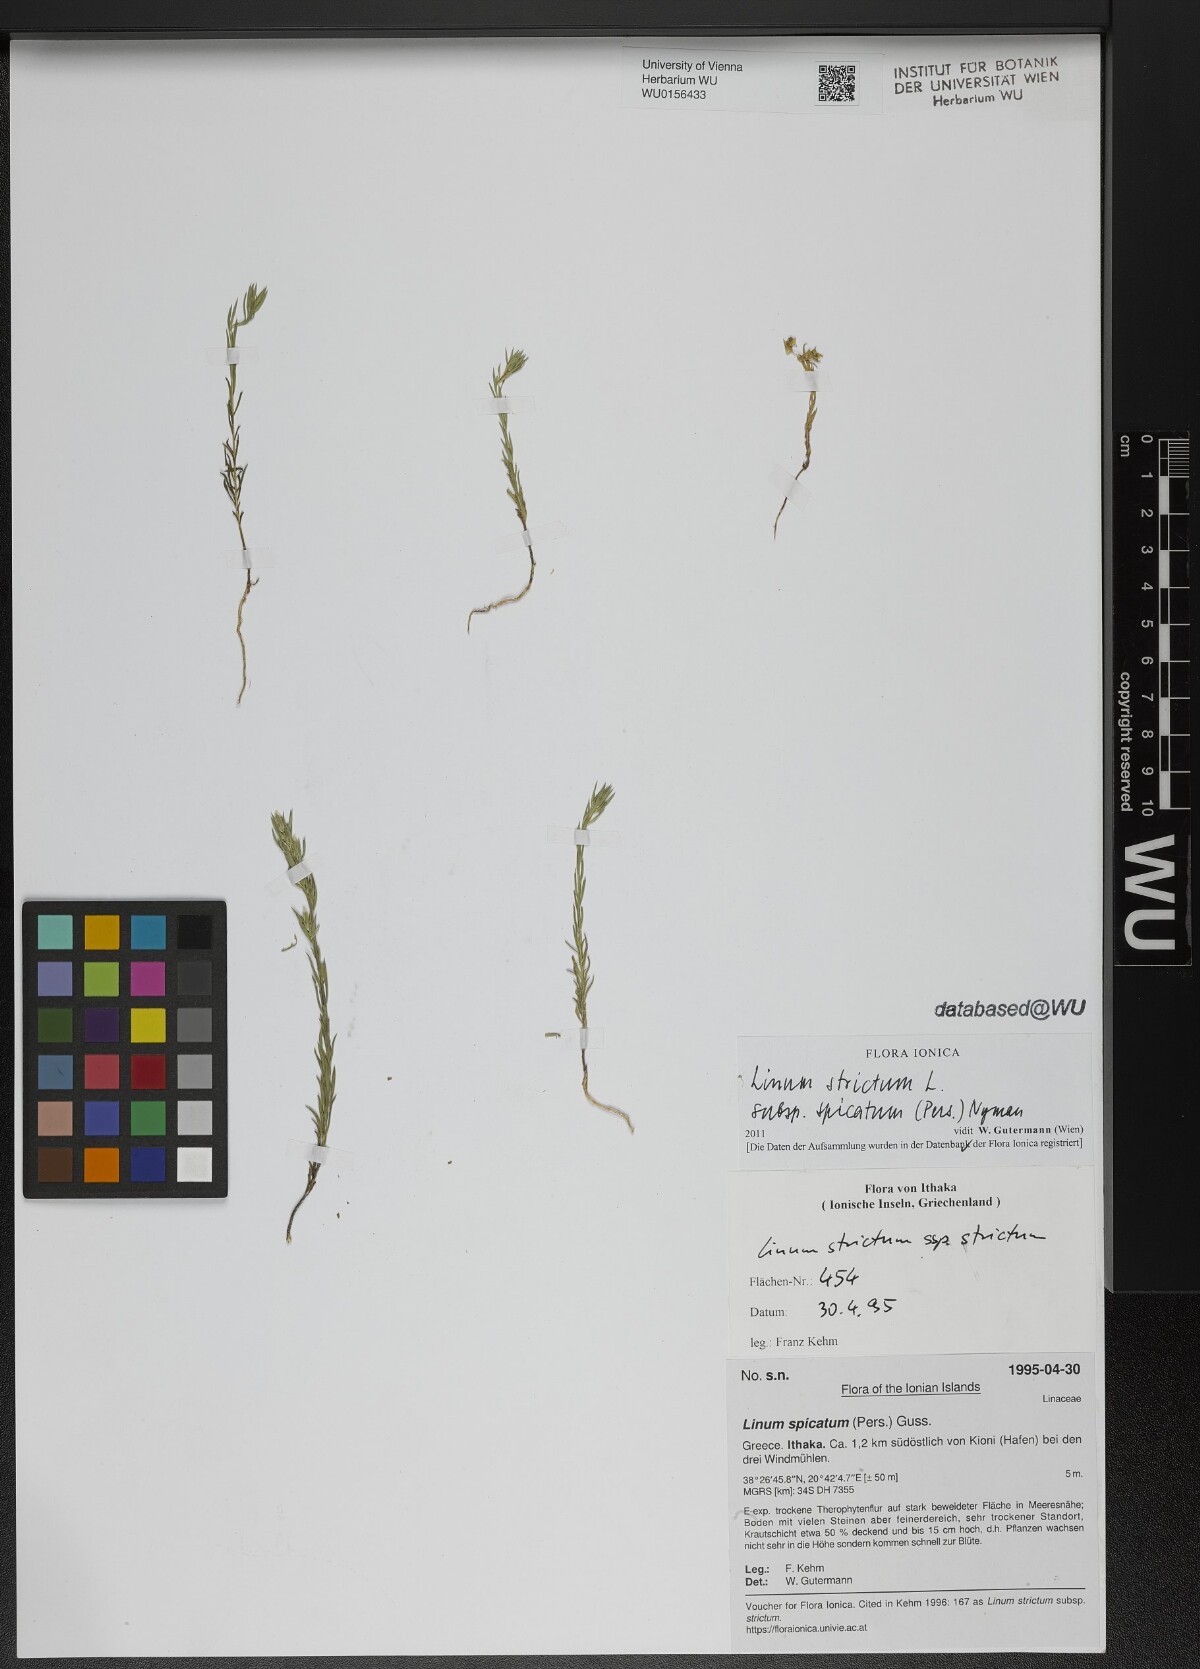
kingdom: Plantae
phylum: Tracheophyta
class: Magnoliopsida
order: Malpighiales
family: Linaceae
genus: Linum
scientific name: Linum strictum
